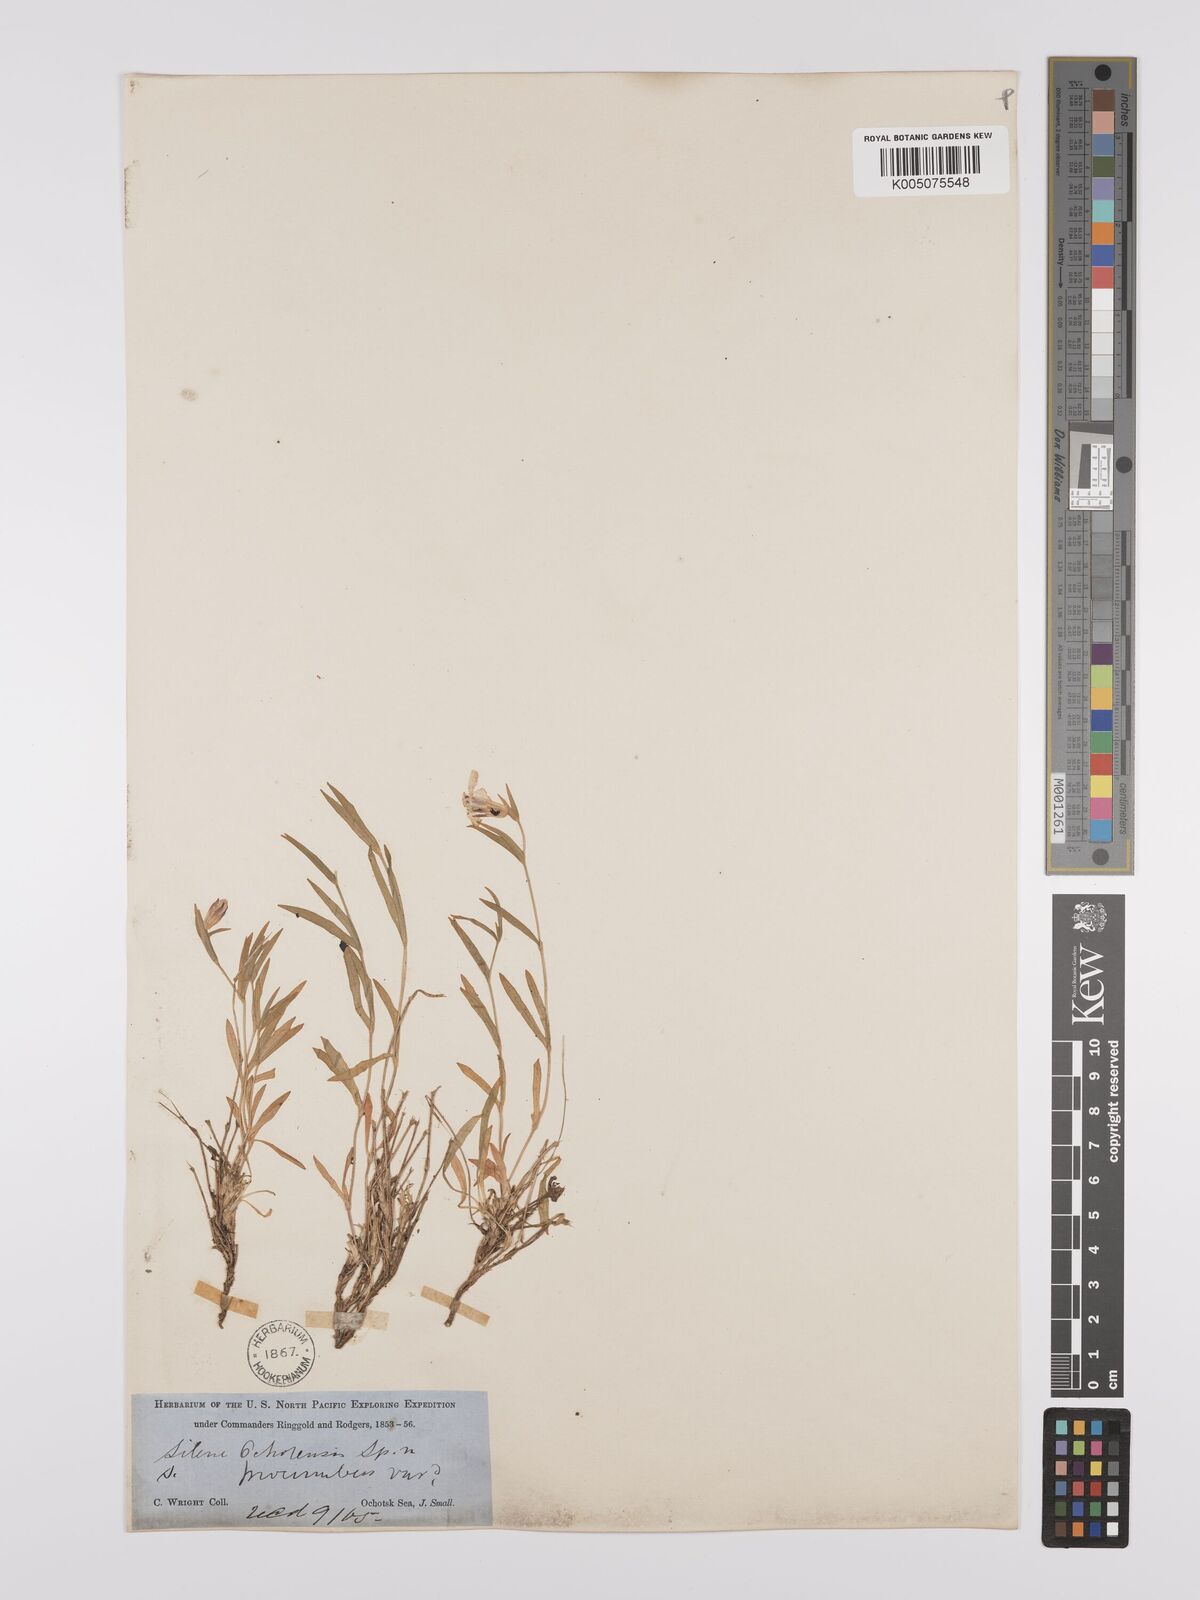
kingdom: Plantae
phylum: Tracheophyta
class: Magnoliopsida
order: Caryophyllales
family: Caryophyllaceae
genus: Silene
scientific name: Silene
